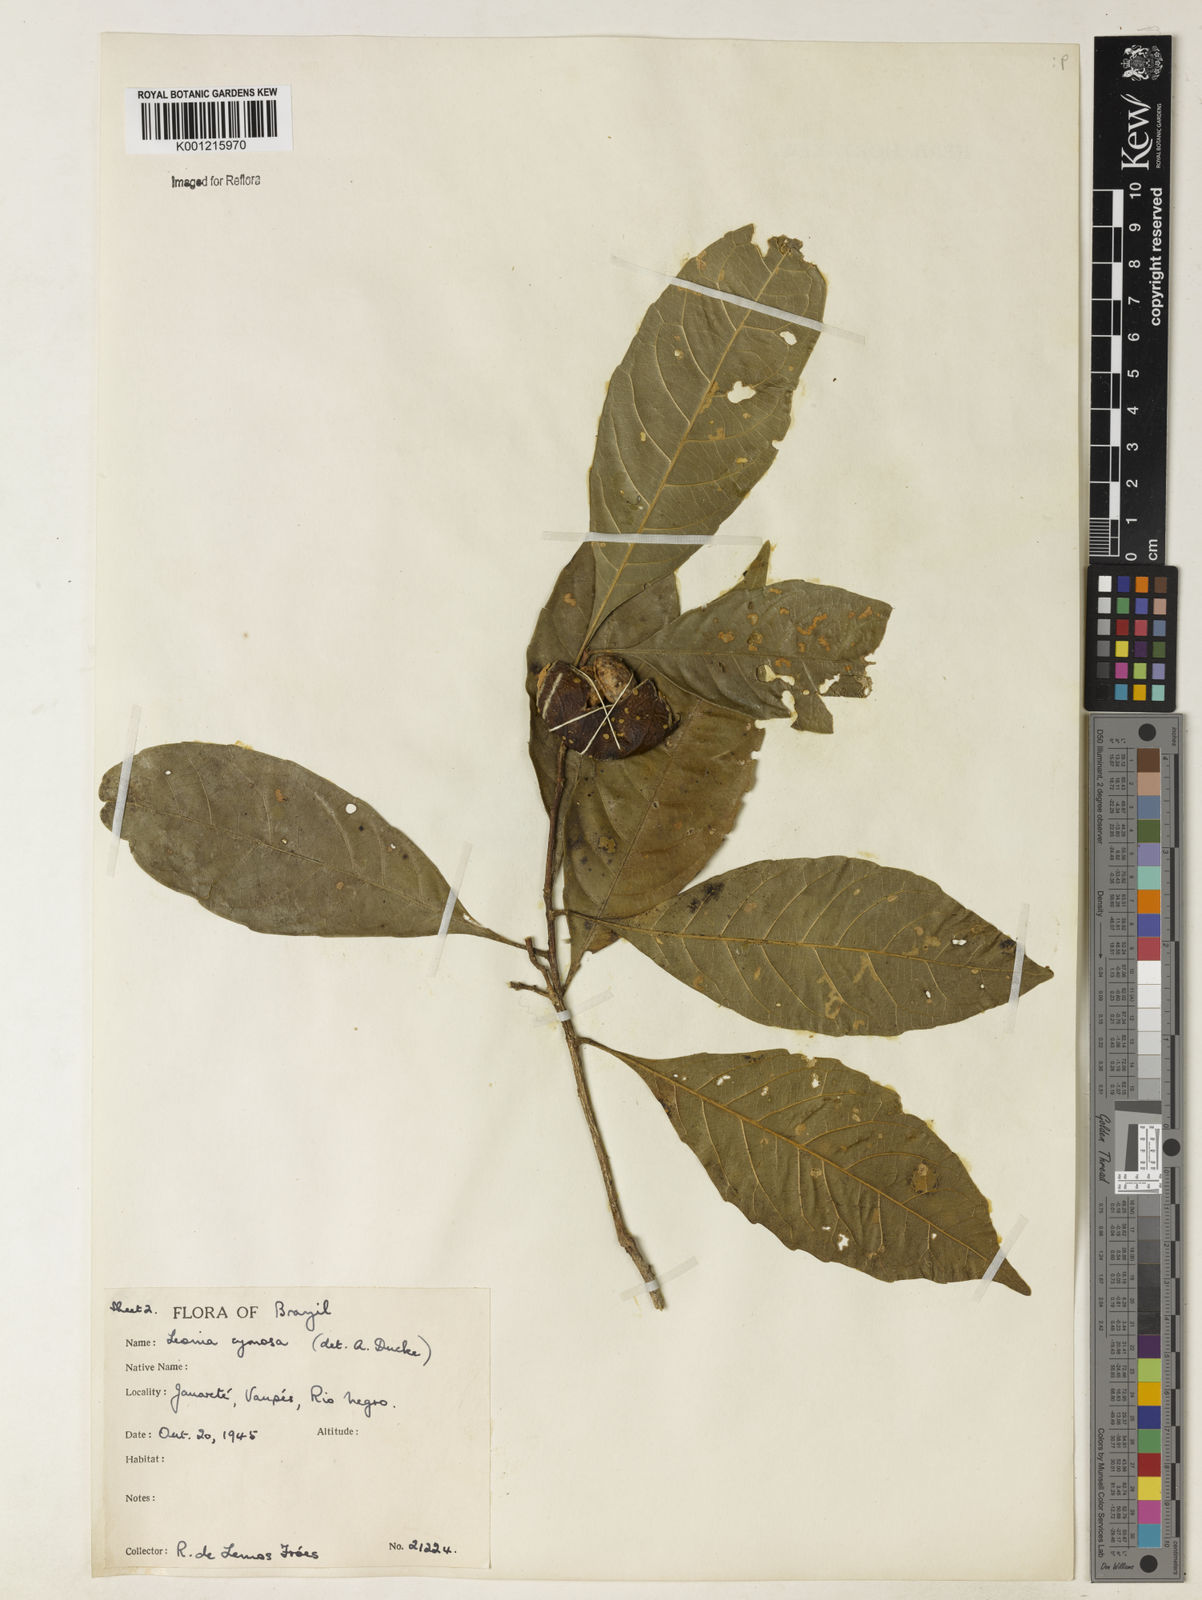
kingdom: Plantae
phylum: Tracheophyta
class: Magnoliopsida
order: Malpighiales
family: Violaceae
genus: Leonia
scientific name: Leonia cymosa
